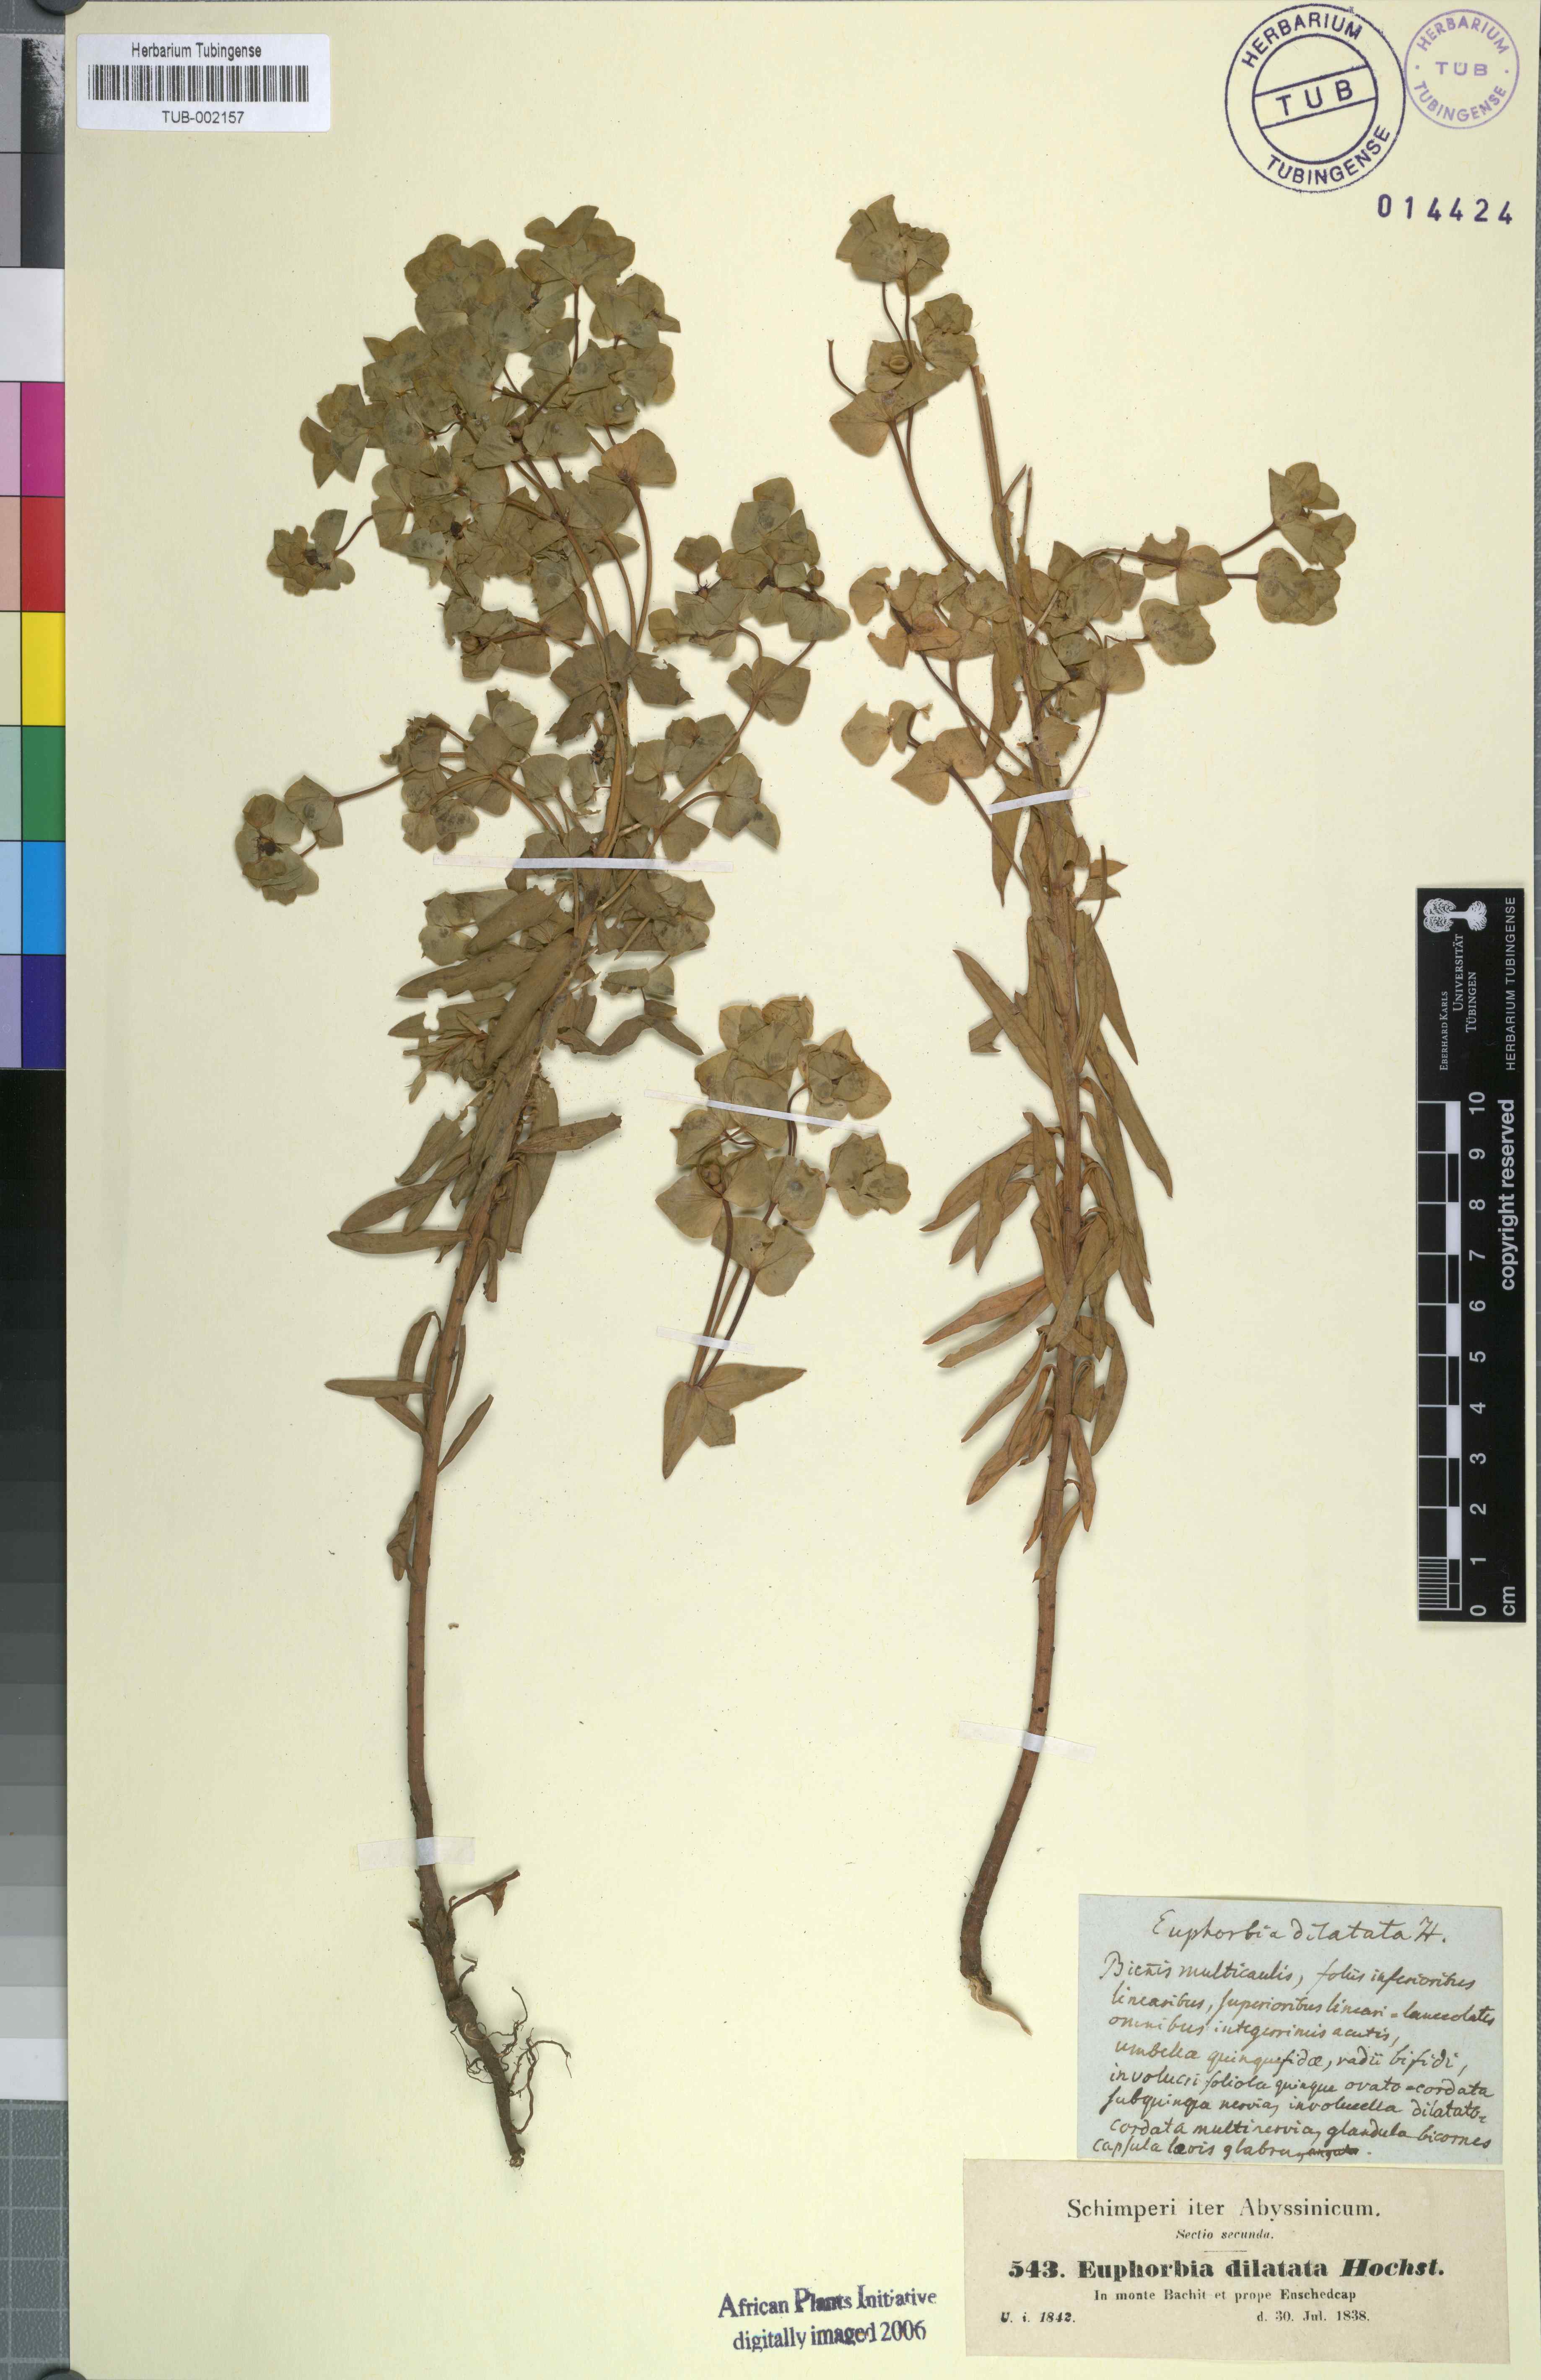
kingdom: Plantae
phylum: Tracheophyta
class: Magnoliopsida
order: Malpighiales
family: Euphorbiaceae
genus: Euphorbia
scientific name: Euphorbia schimperiana
